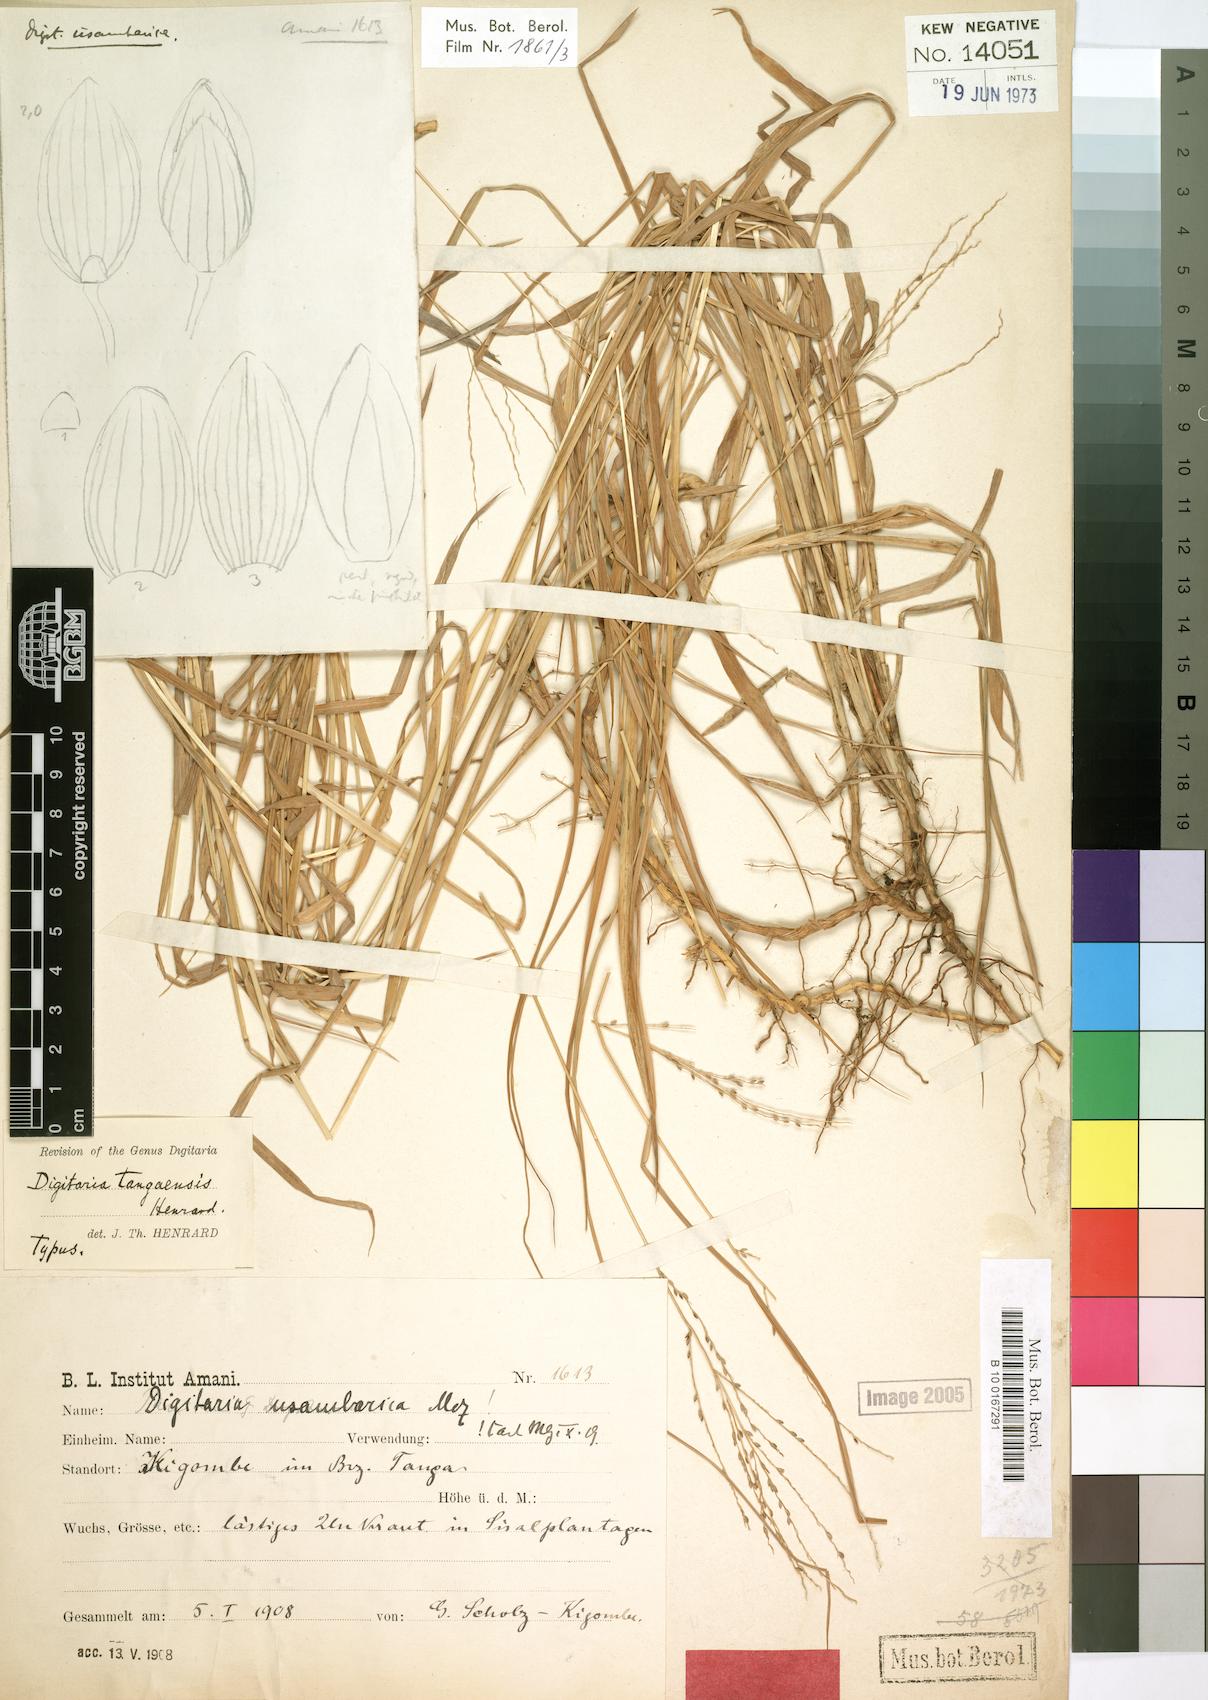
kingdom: Plantae
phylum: Tracheophyta
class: Liliopsida
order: Poales
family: Poaceae
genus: Digitaria
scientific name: Digitaria abyssinica
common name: African couchgrass
